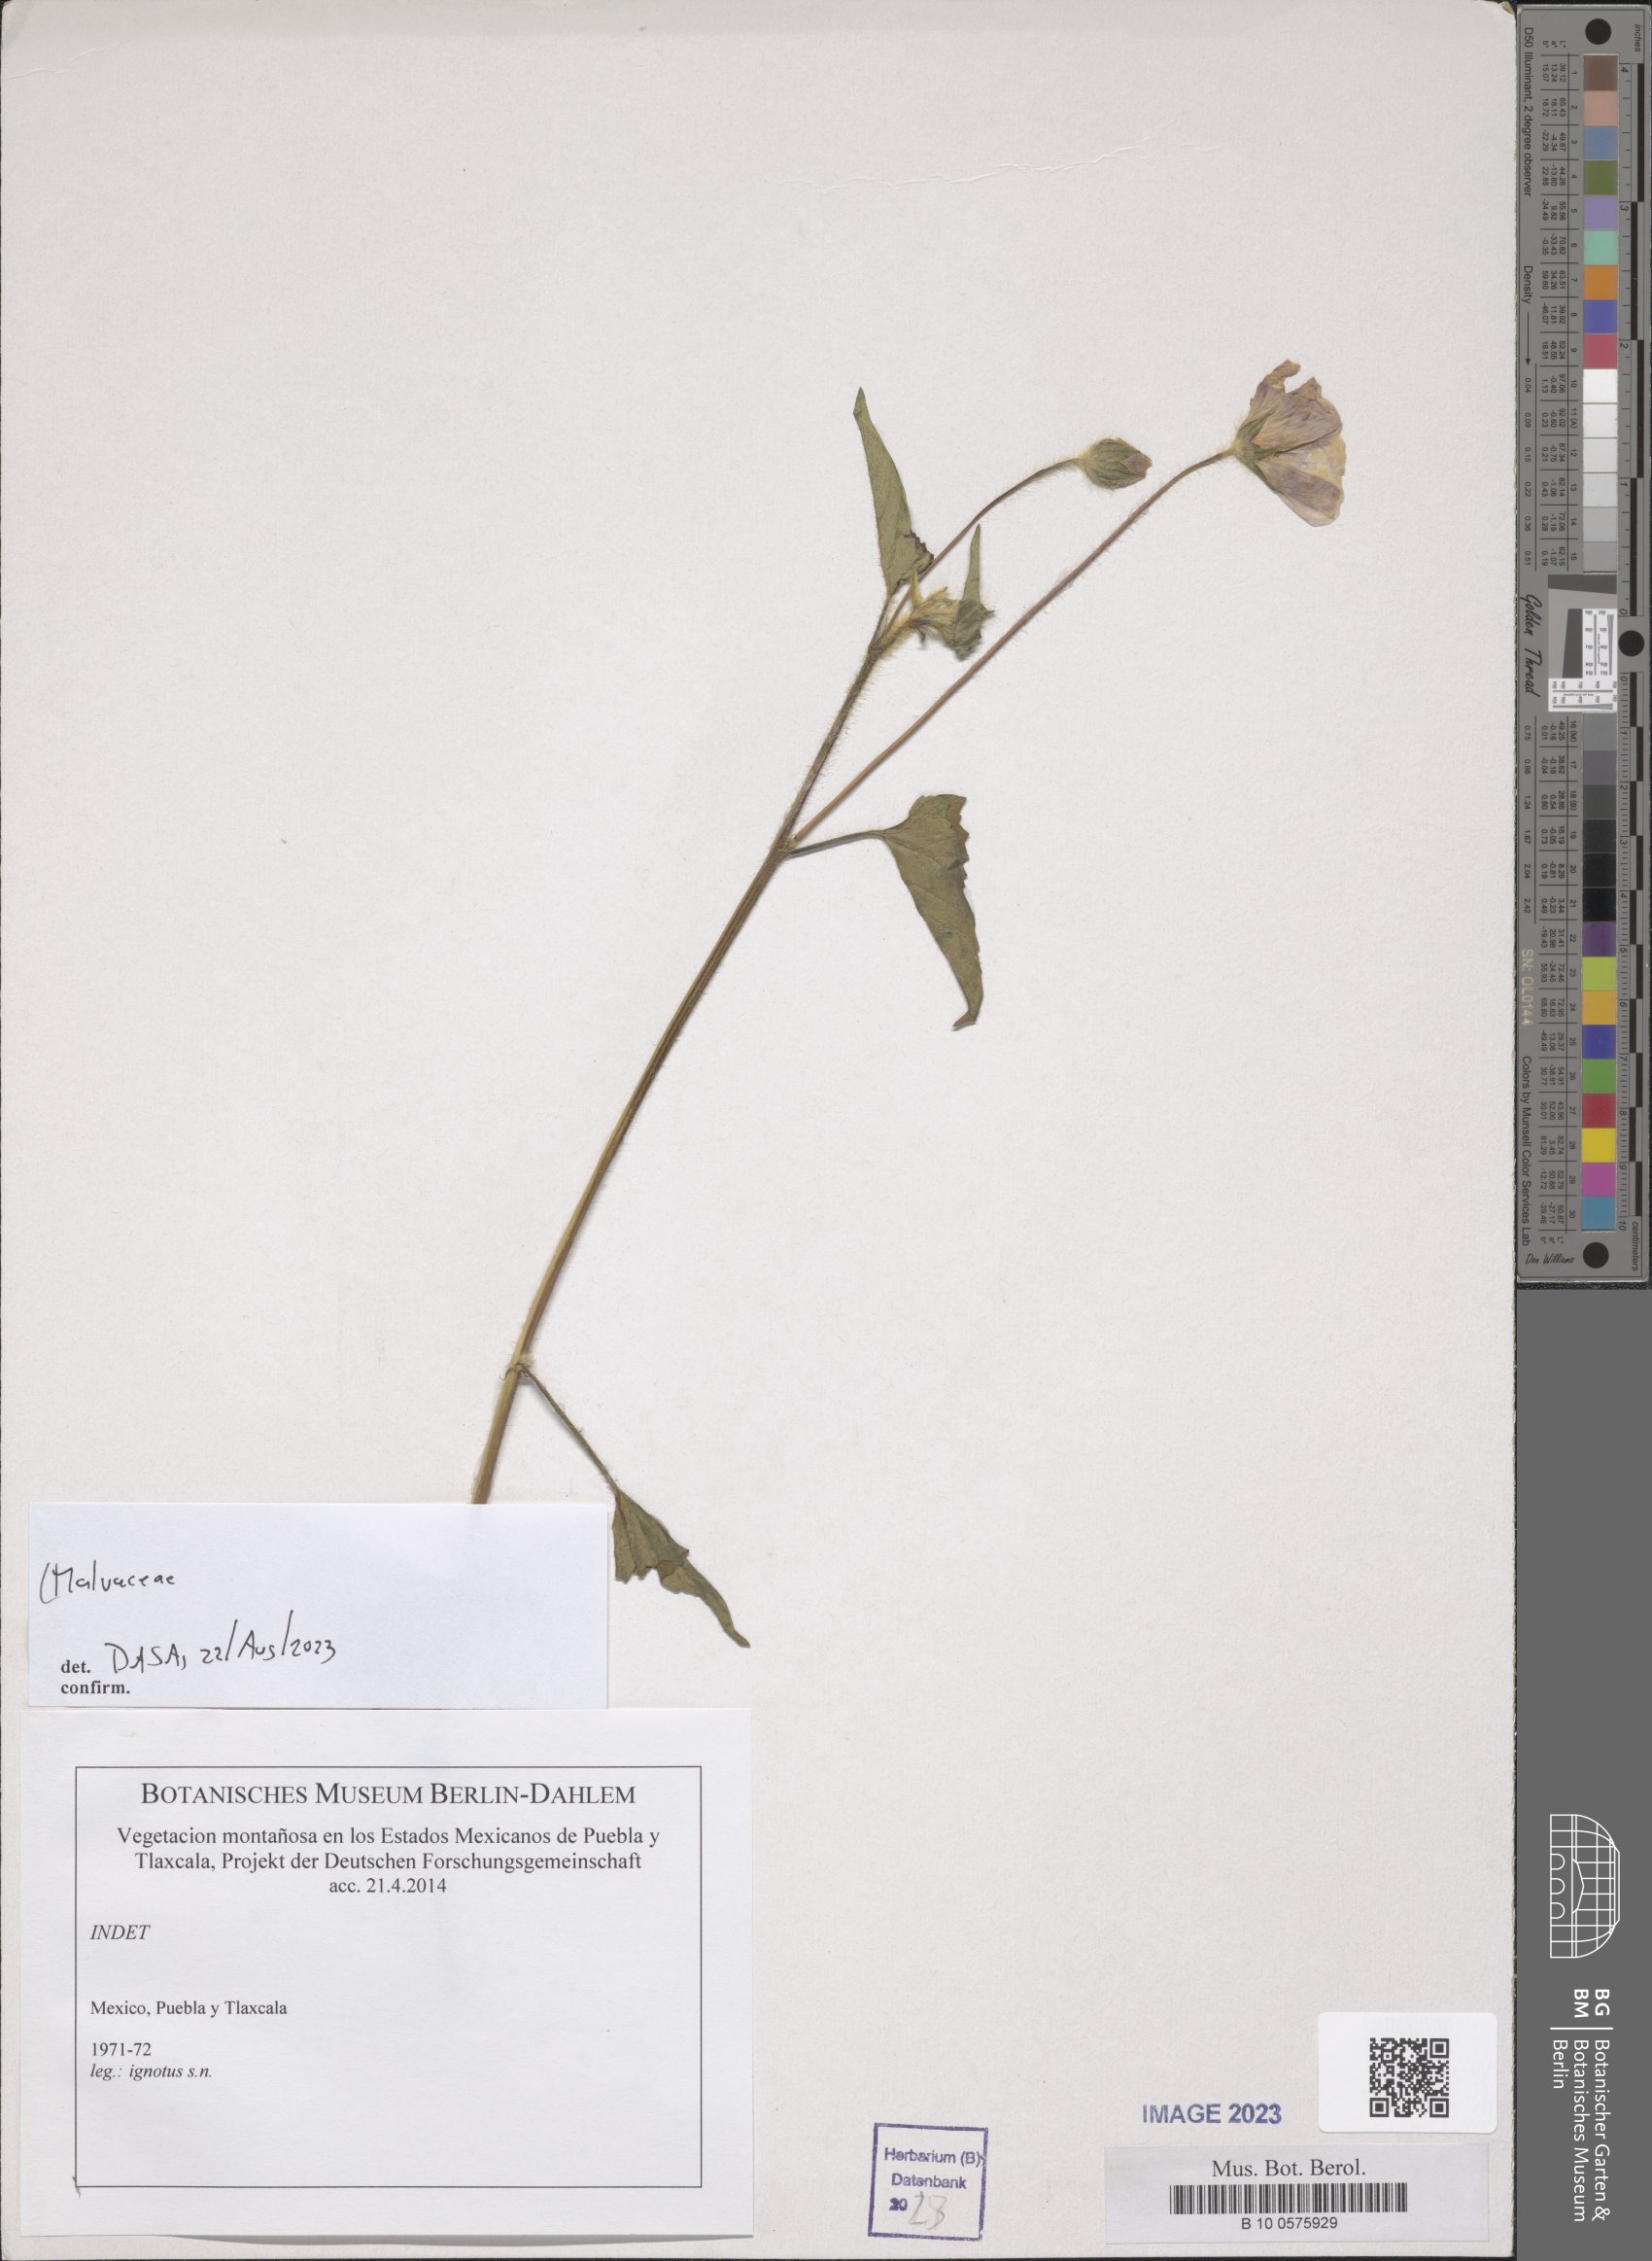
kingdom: Plantae
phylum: Tracheophyta
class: Magnoliopsida
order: Malvales
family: Malvaceae
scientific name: Malvaceae
